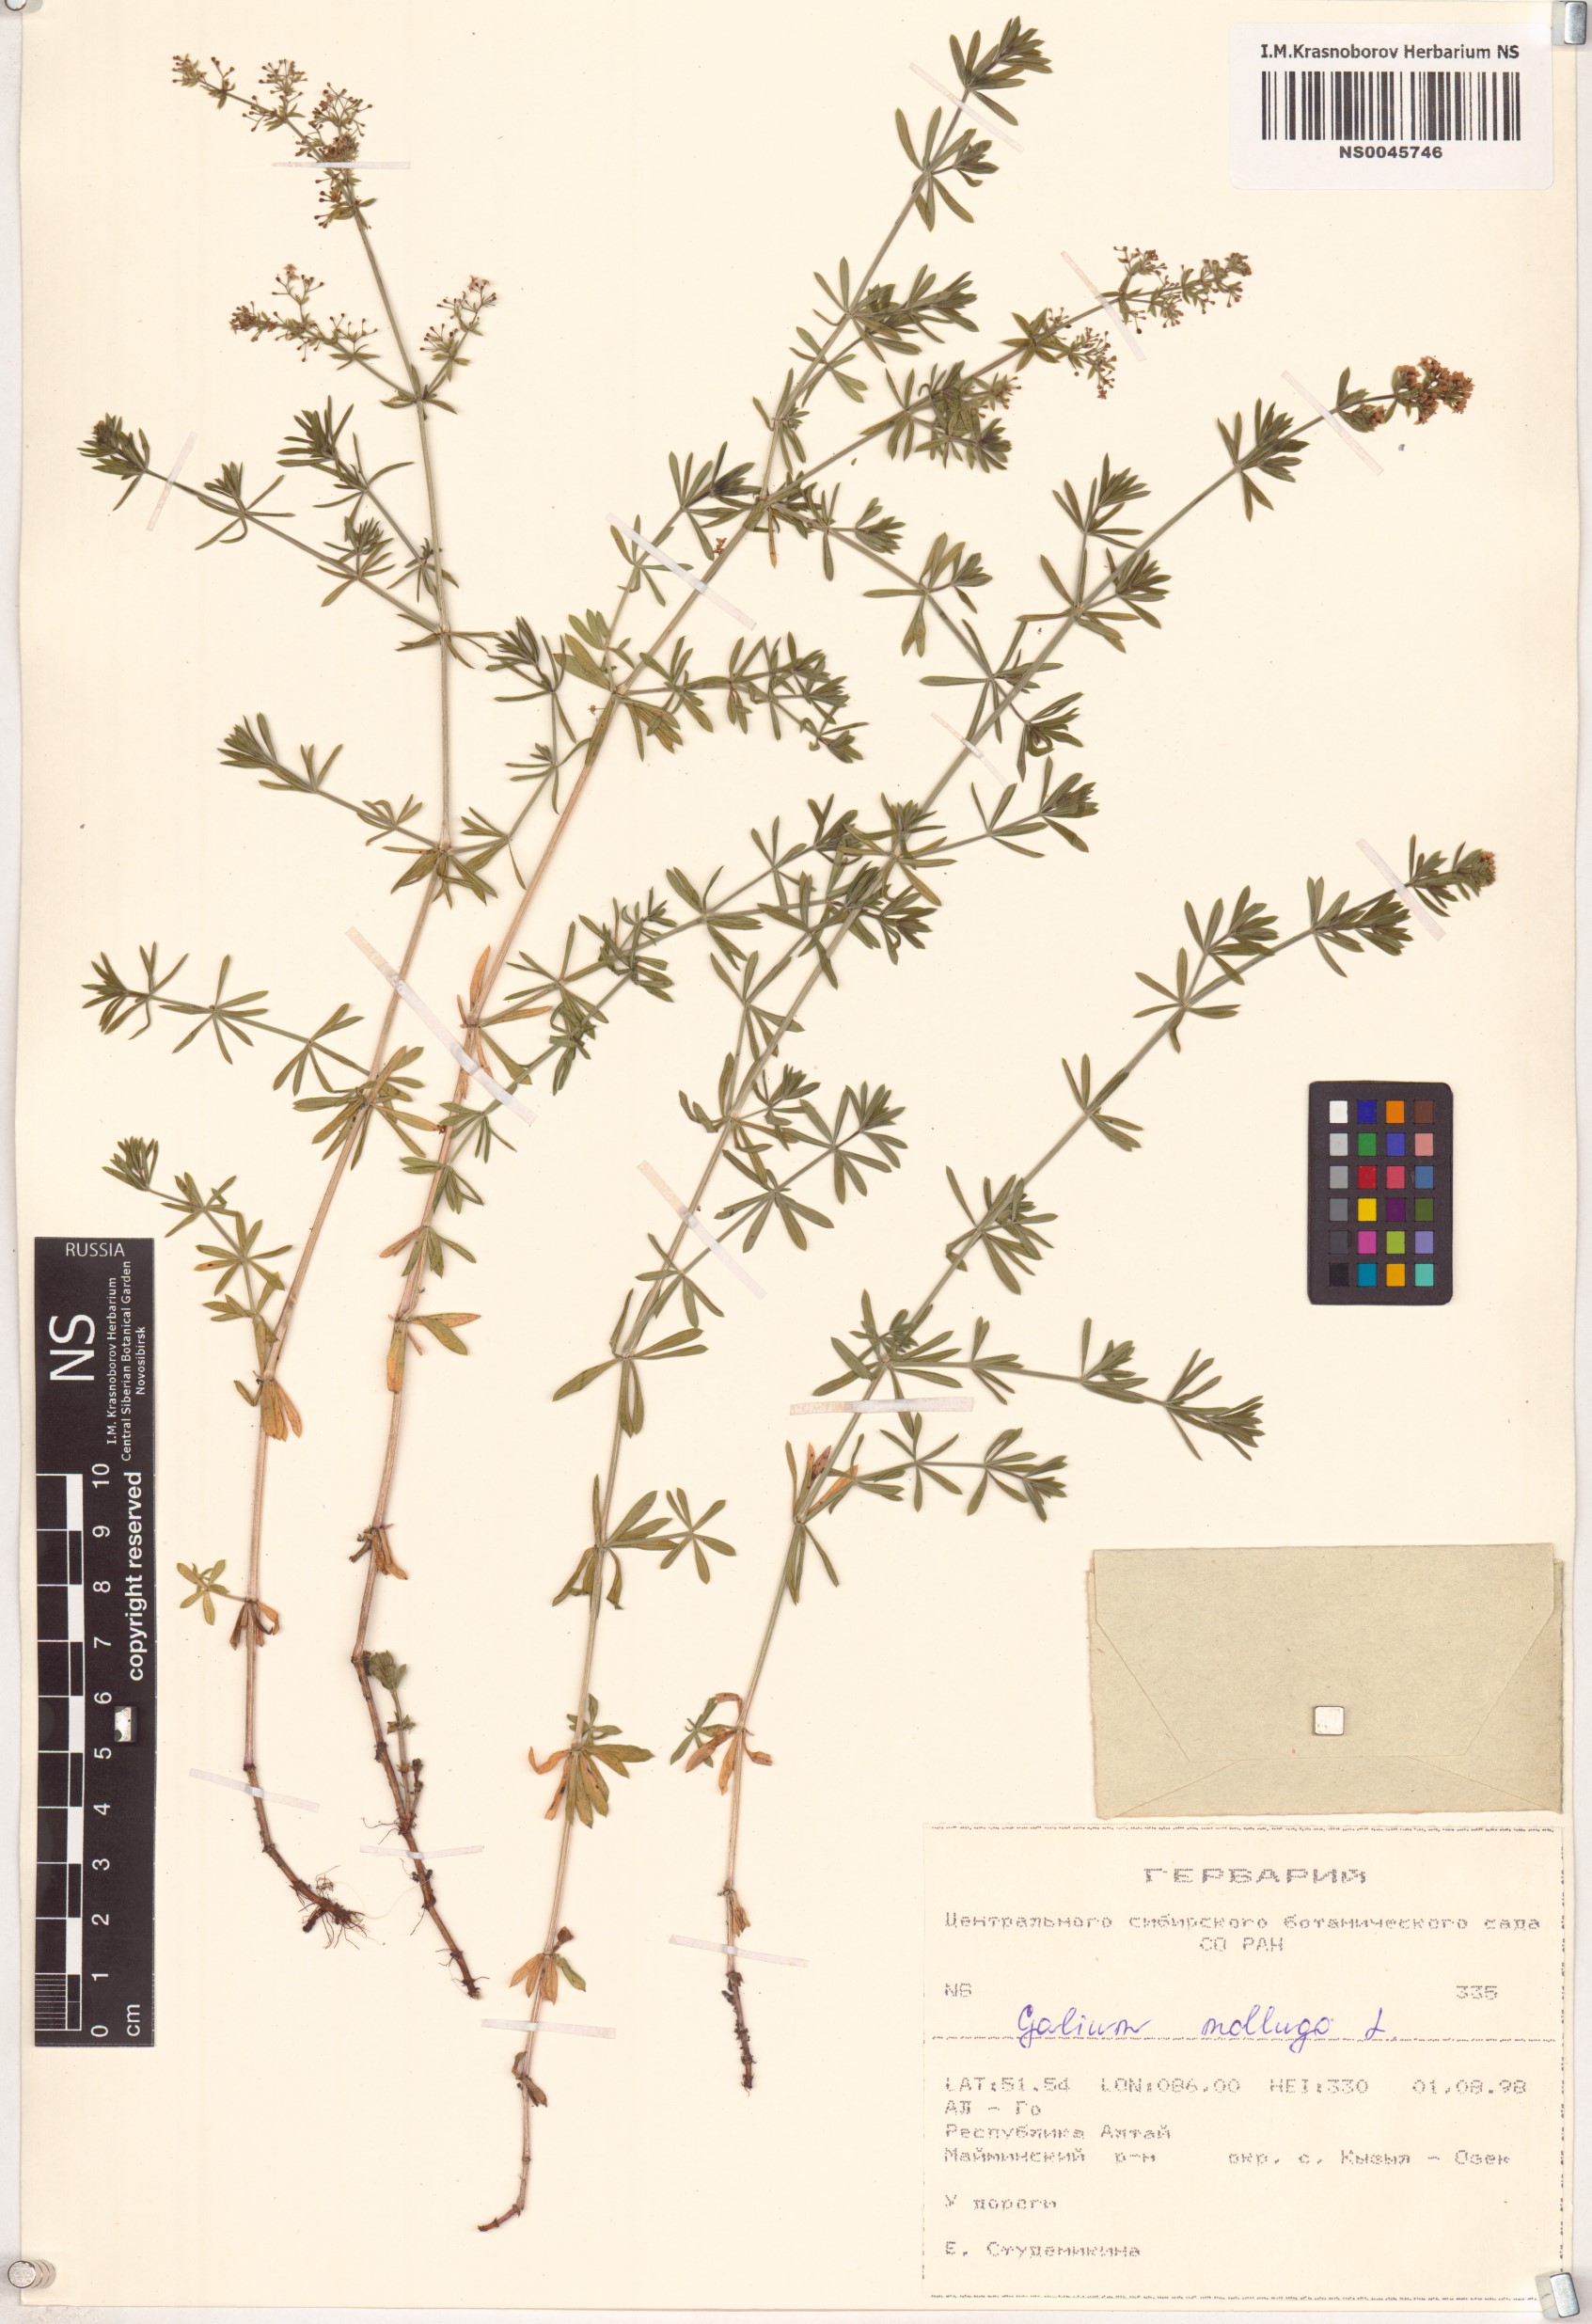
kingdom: Plantae
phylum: Tracheophyta
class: Magnoliopsida
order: Gentianales
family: Rubiaceae
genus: Galium
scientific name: Galium mollugo
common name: Hedge bedstraw
